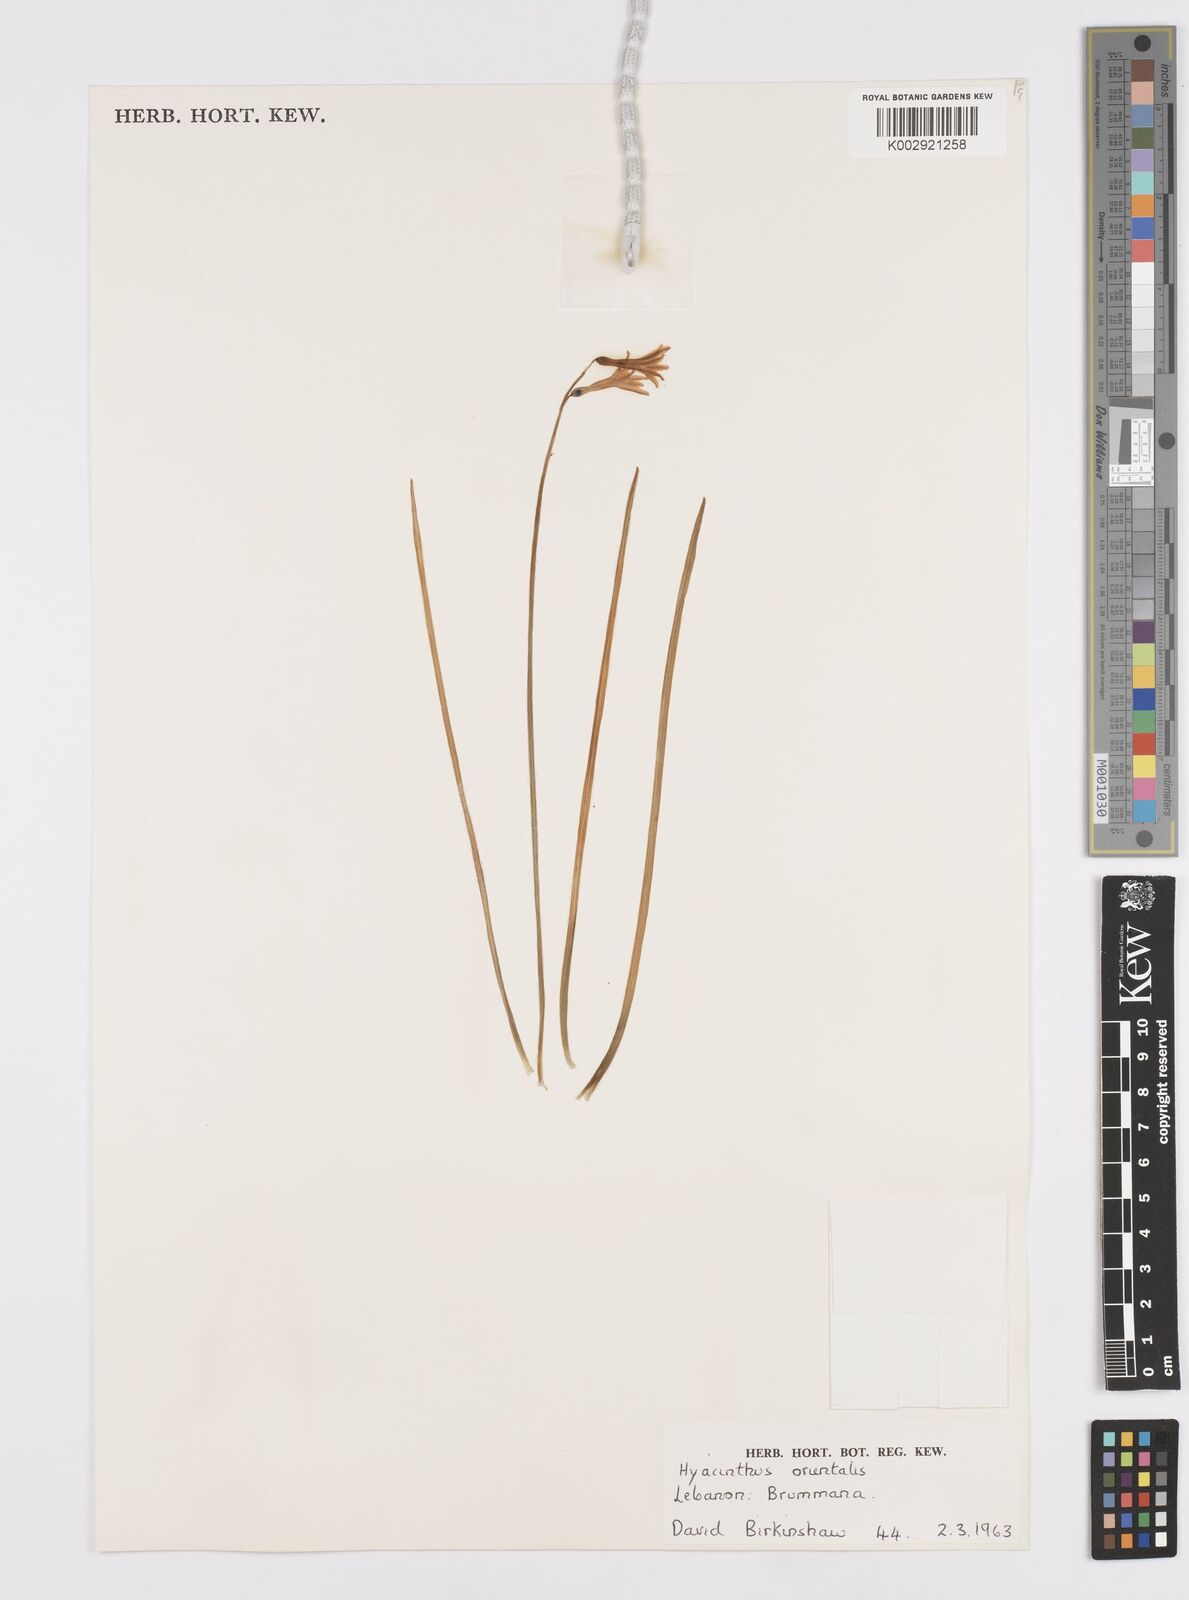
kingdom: Plantae
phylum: Tracheophyta
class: Liliopsida
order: Asparagales
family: Asparagaceae
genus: Hyacinthus
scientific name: Hyacinthus orientalis
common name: Hyacinth
